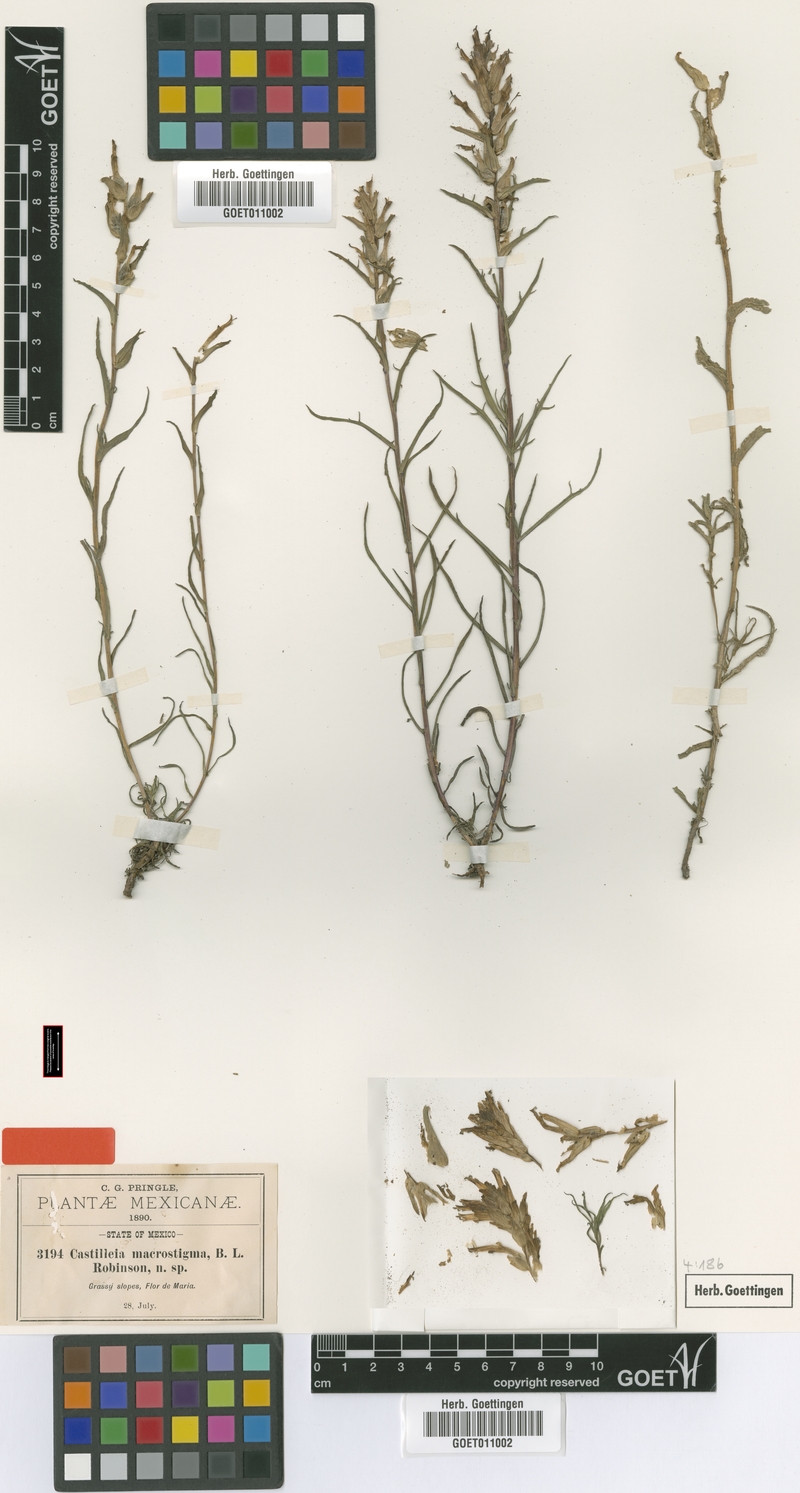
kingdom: Plantae
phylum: Tracheophyta
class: Magnoliopsida
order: Lamiales
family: Orobanchaceae
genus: Castilleja
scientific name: Castilleja macrostigma
